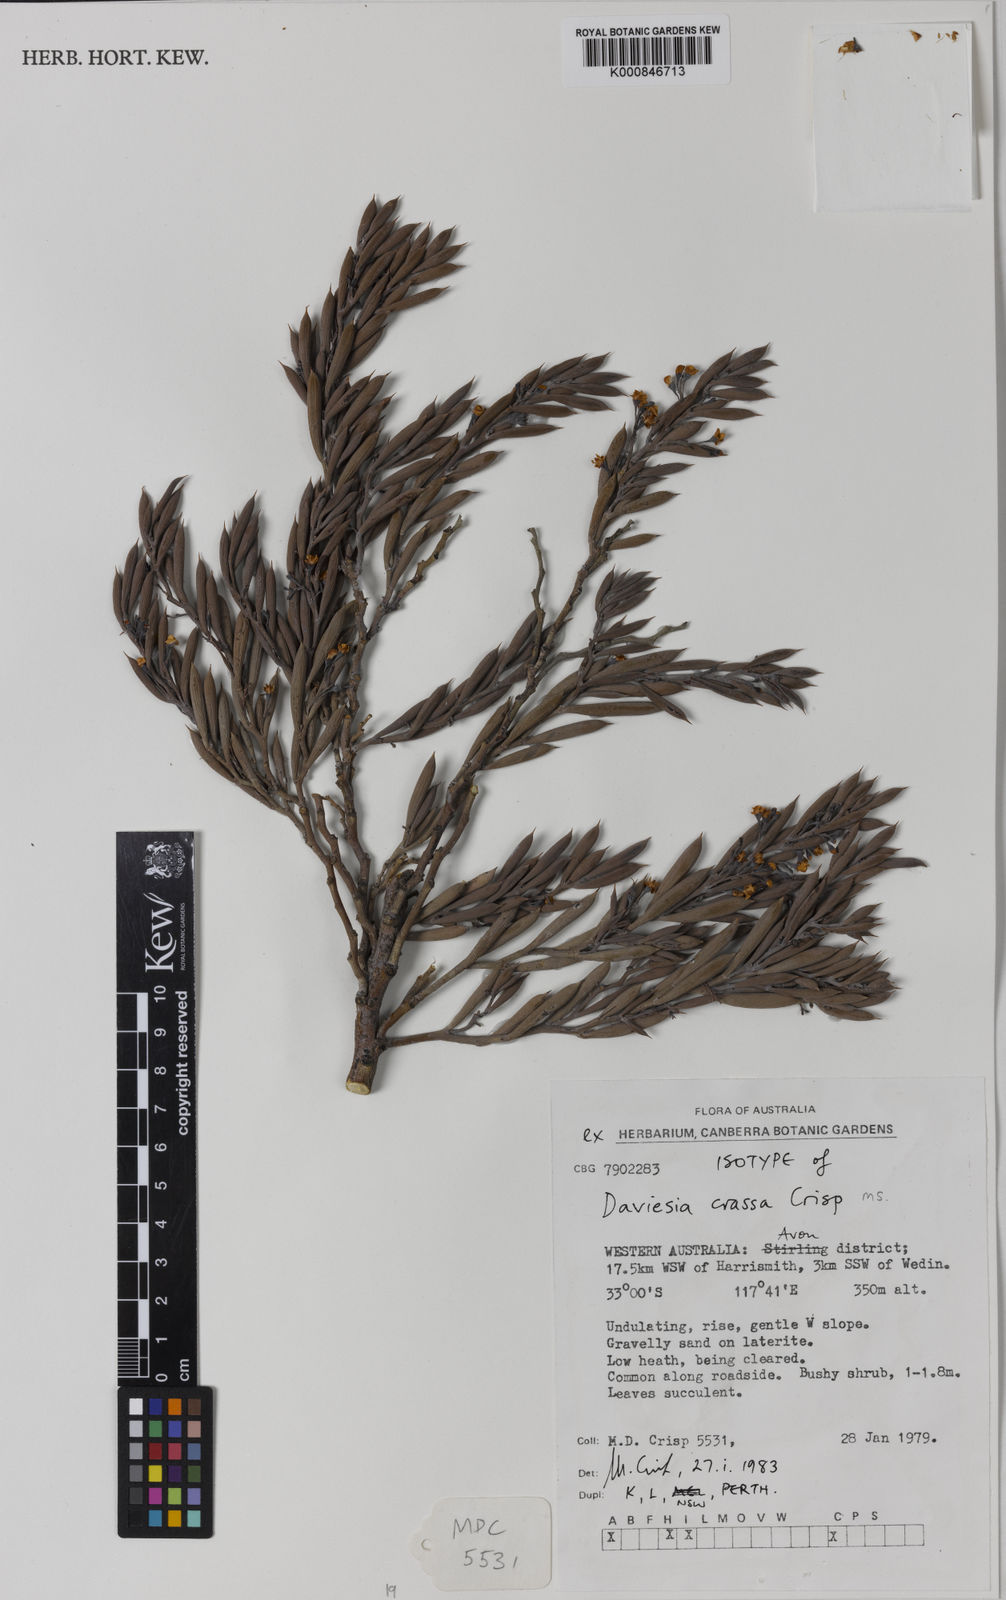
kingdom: Plantae
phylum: Tracheophyta
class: Magnoliopsida
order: Fabales
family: Fabaceae
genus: Daviesia
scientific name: Daviesia crassa
